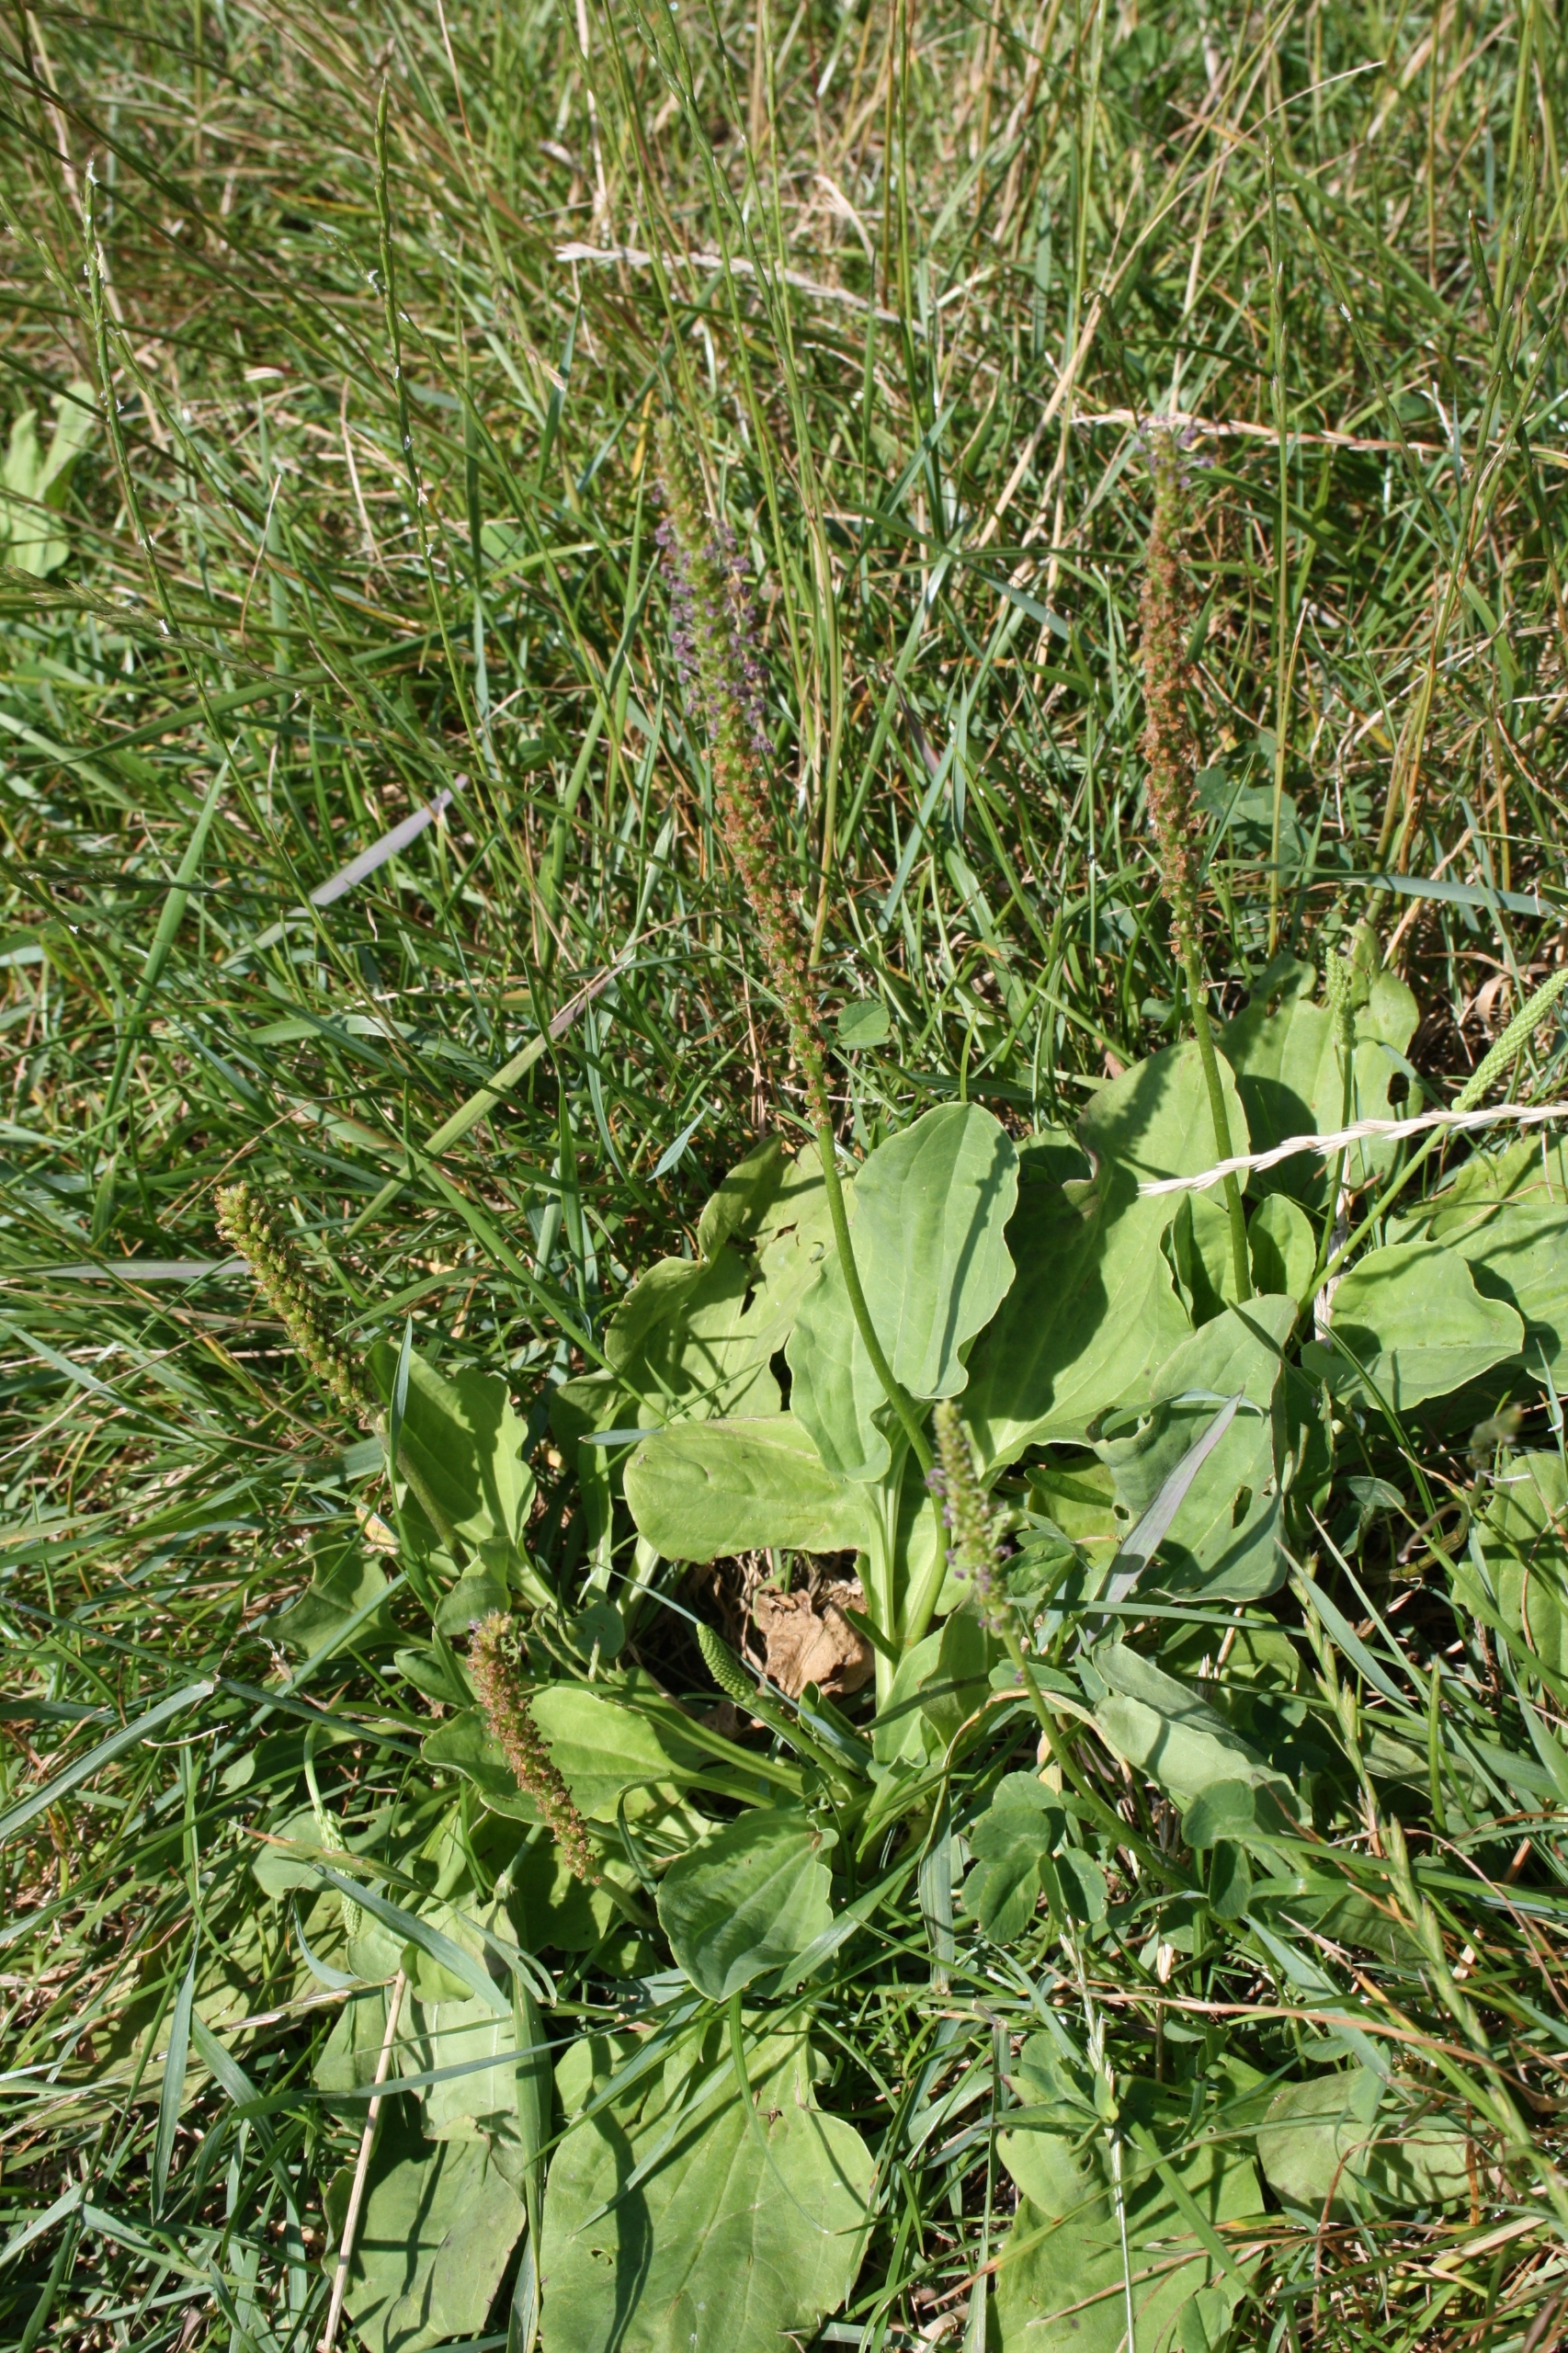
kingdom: Plantae
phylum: Tracheophyta
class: Magnoliopsida
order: Lamiales
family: Plantaginaceae
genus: Plantago
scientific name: Plantago major
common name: Glat vejbred
